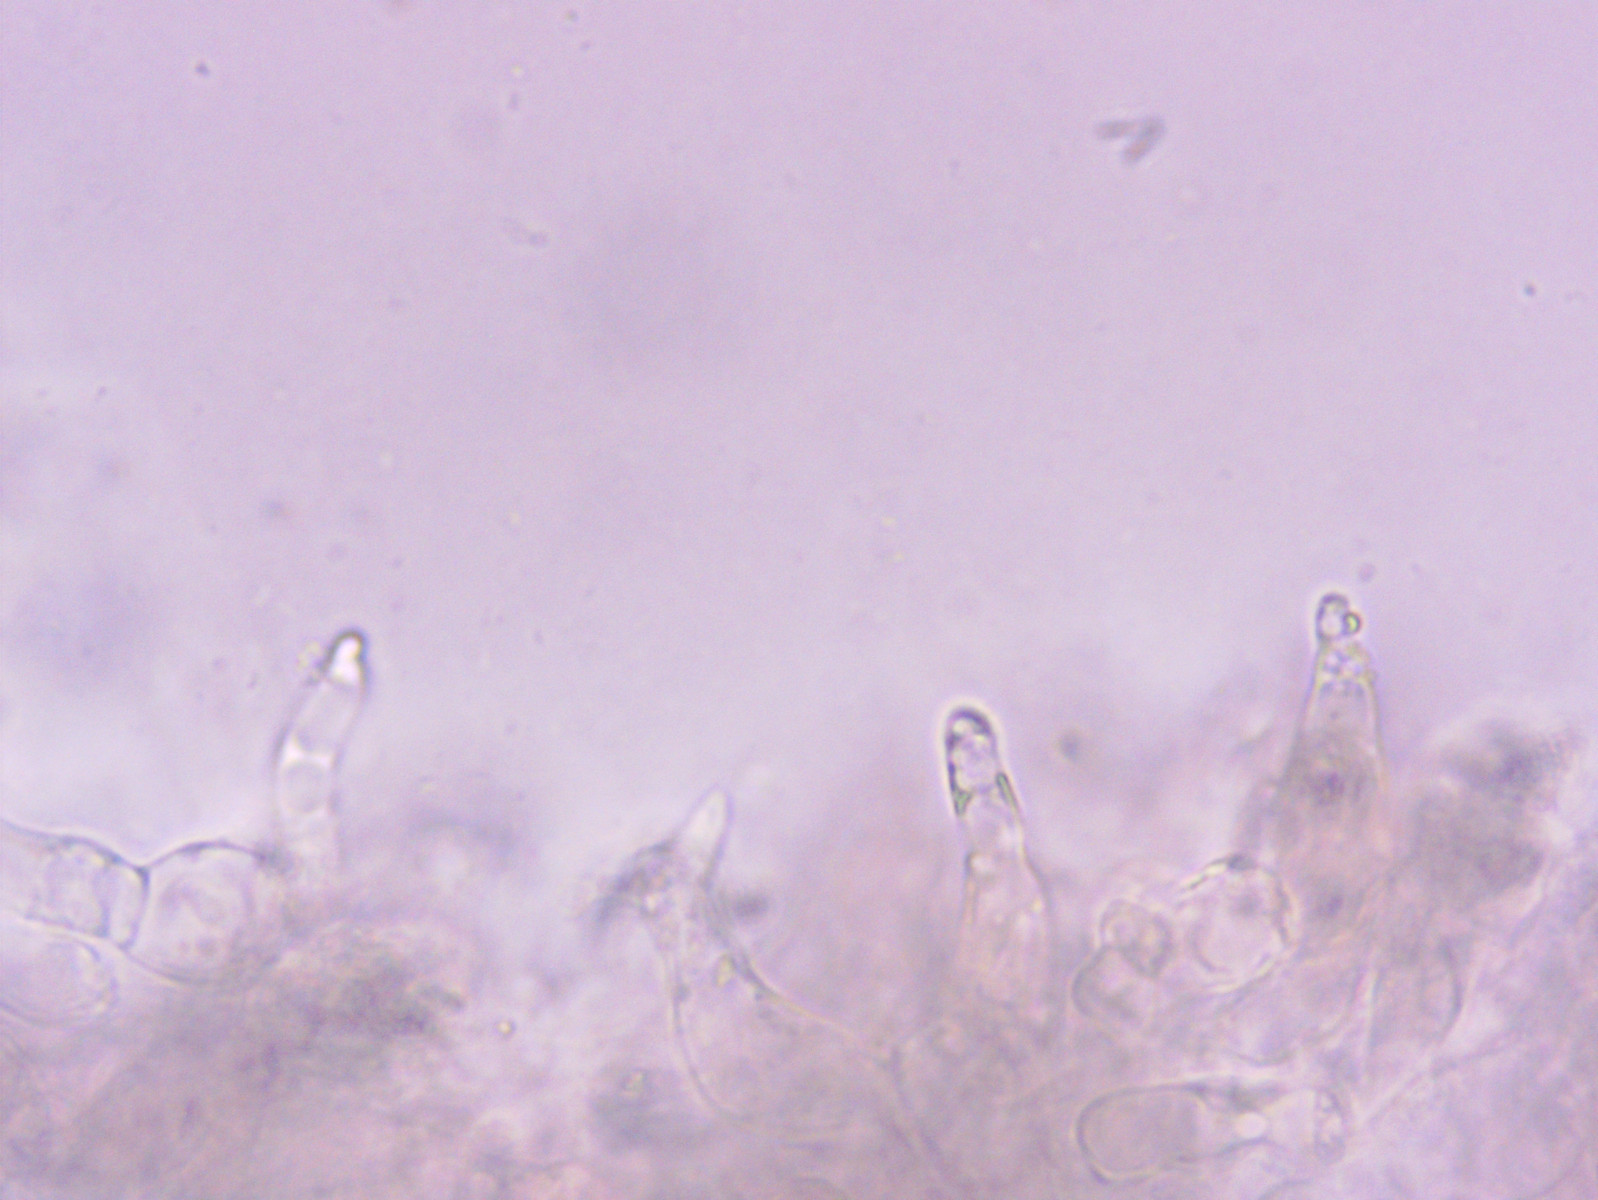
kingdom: Fungi
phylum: Basidiomycota
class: Agaricomycetes
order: Agaricales
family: Mycenaceae
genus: Mycena
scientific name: Mycena olivaceomarginata
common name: brunægget huesvamp
